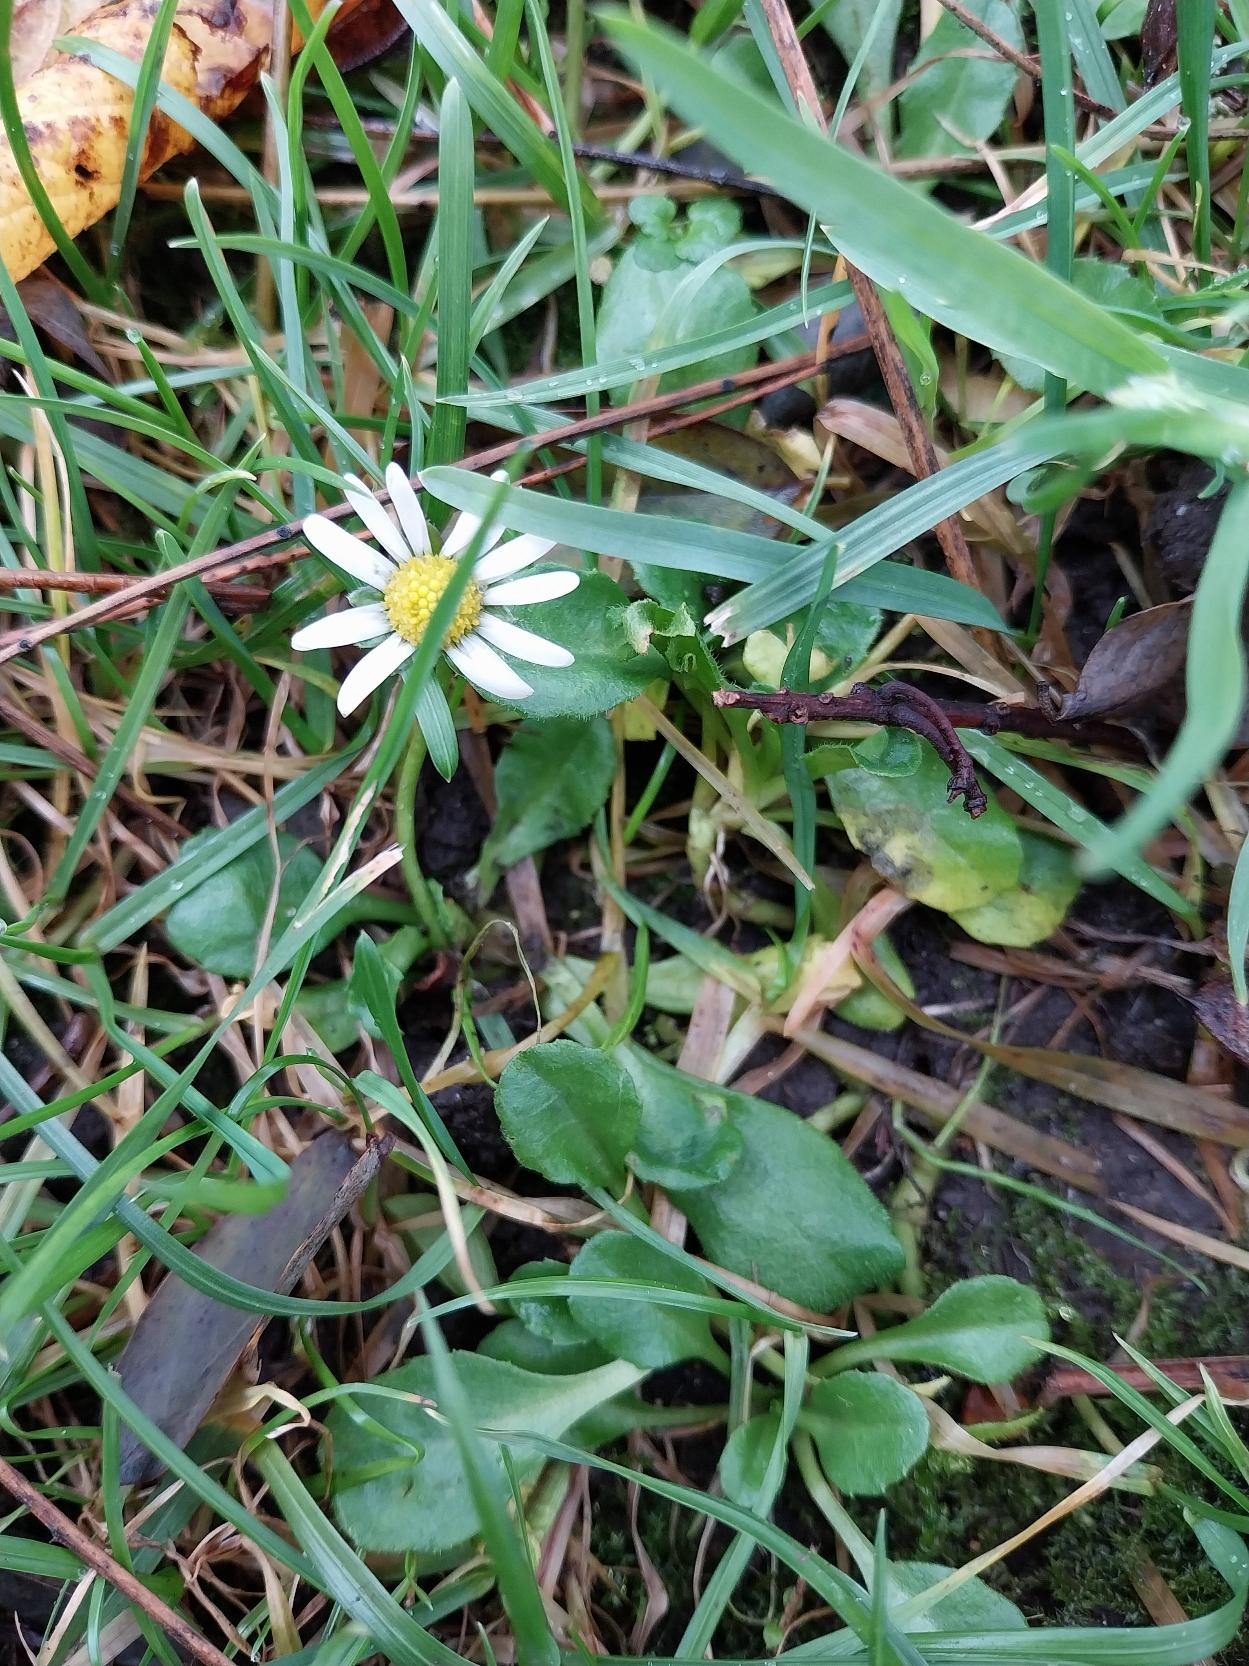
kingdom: Plantae
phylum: Tracheophyta
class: Magnoliopsida
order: Asterales
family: Asteraceae
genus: Bellis
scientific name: Bellis perennis
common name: Tusindfryd
